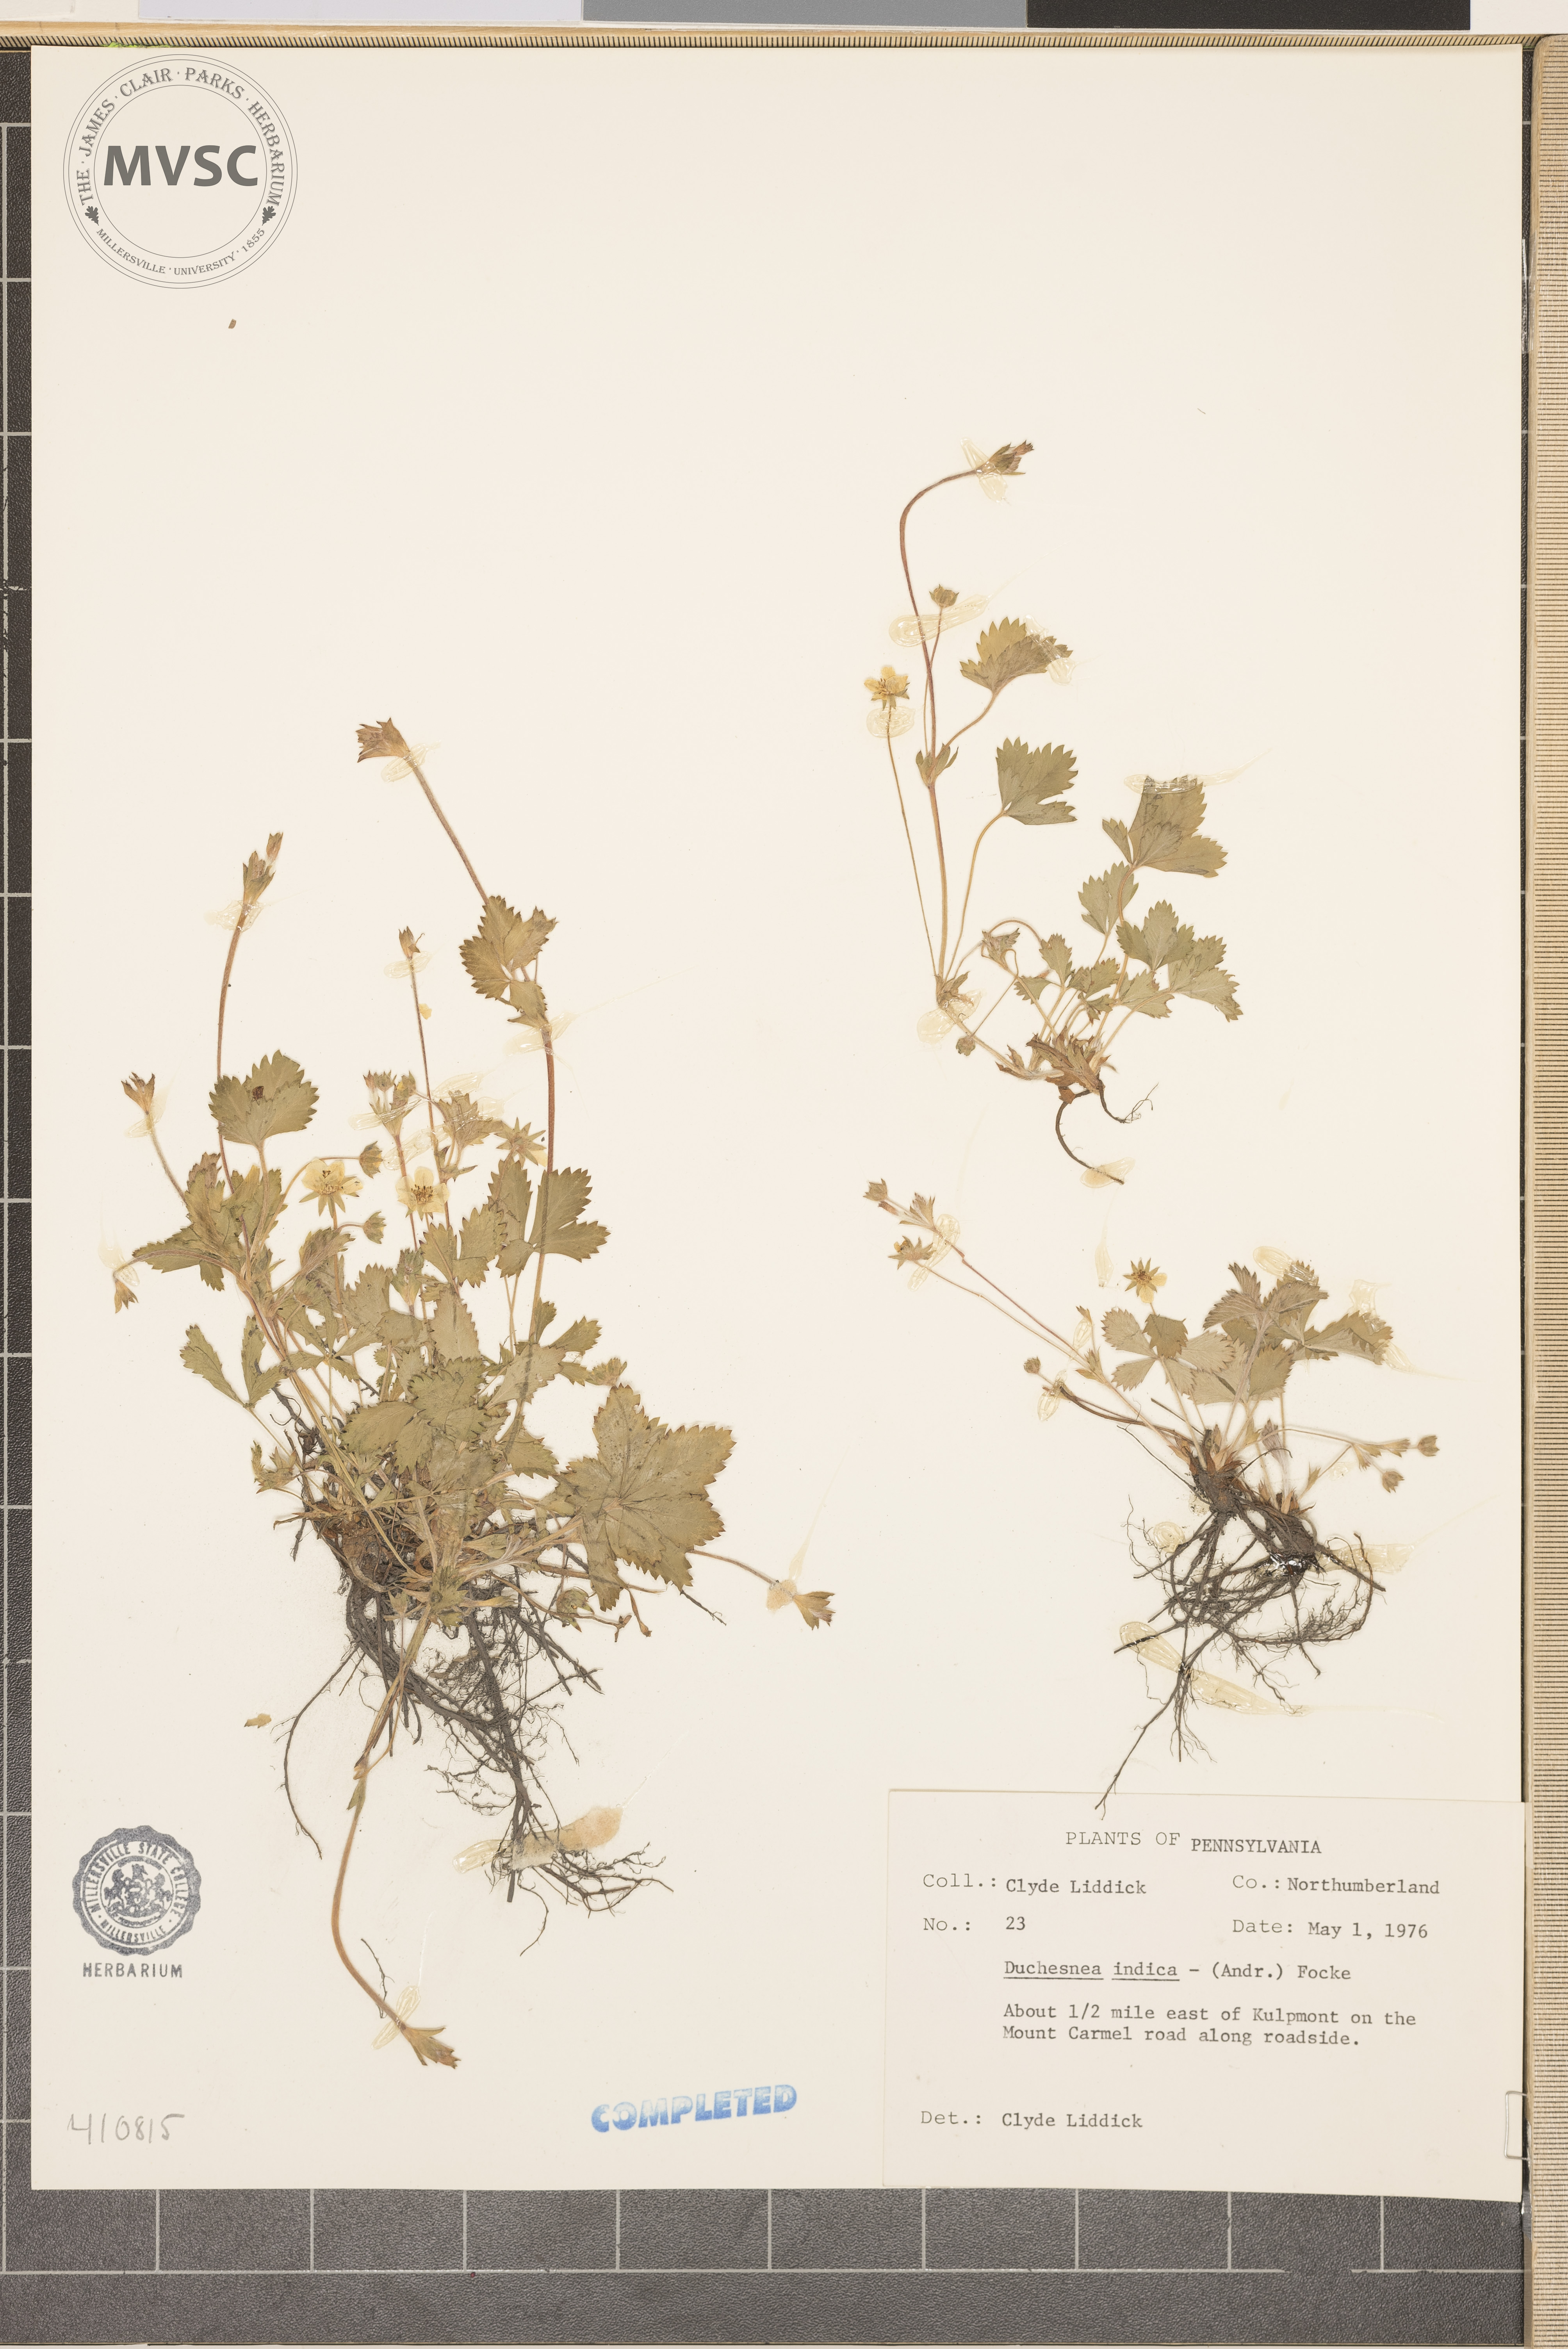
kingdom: Plantae
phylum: Tracheophyta
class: Magnoliopsida
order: Rosales
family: Rosaceae
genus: Potentilla
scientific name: Potentilla indica
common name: Yellow-flowered strawberry
